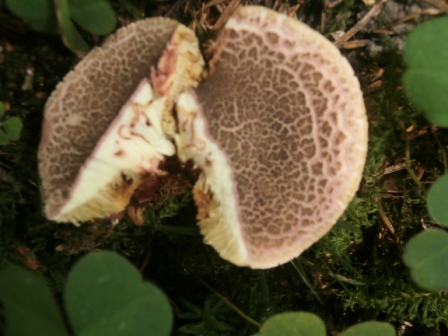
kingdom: Fungi
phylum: Basidiomycota
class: Agaricomycetes
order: Boletales
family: Boletaceae
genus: Xerocomellus
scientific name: Xerocomellus chrysenteron
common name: rødsprukken rørhat
